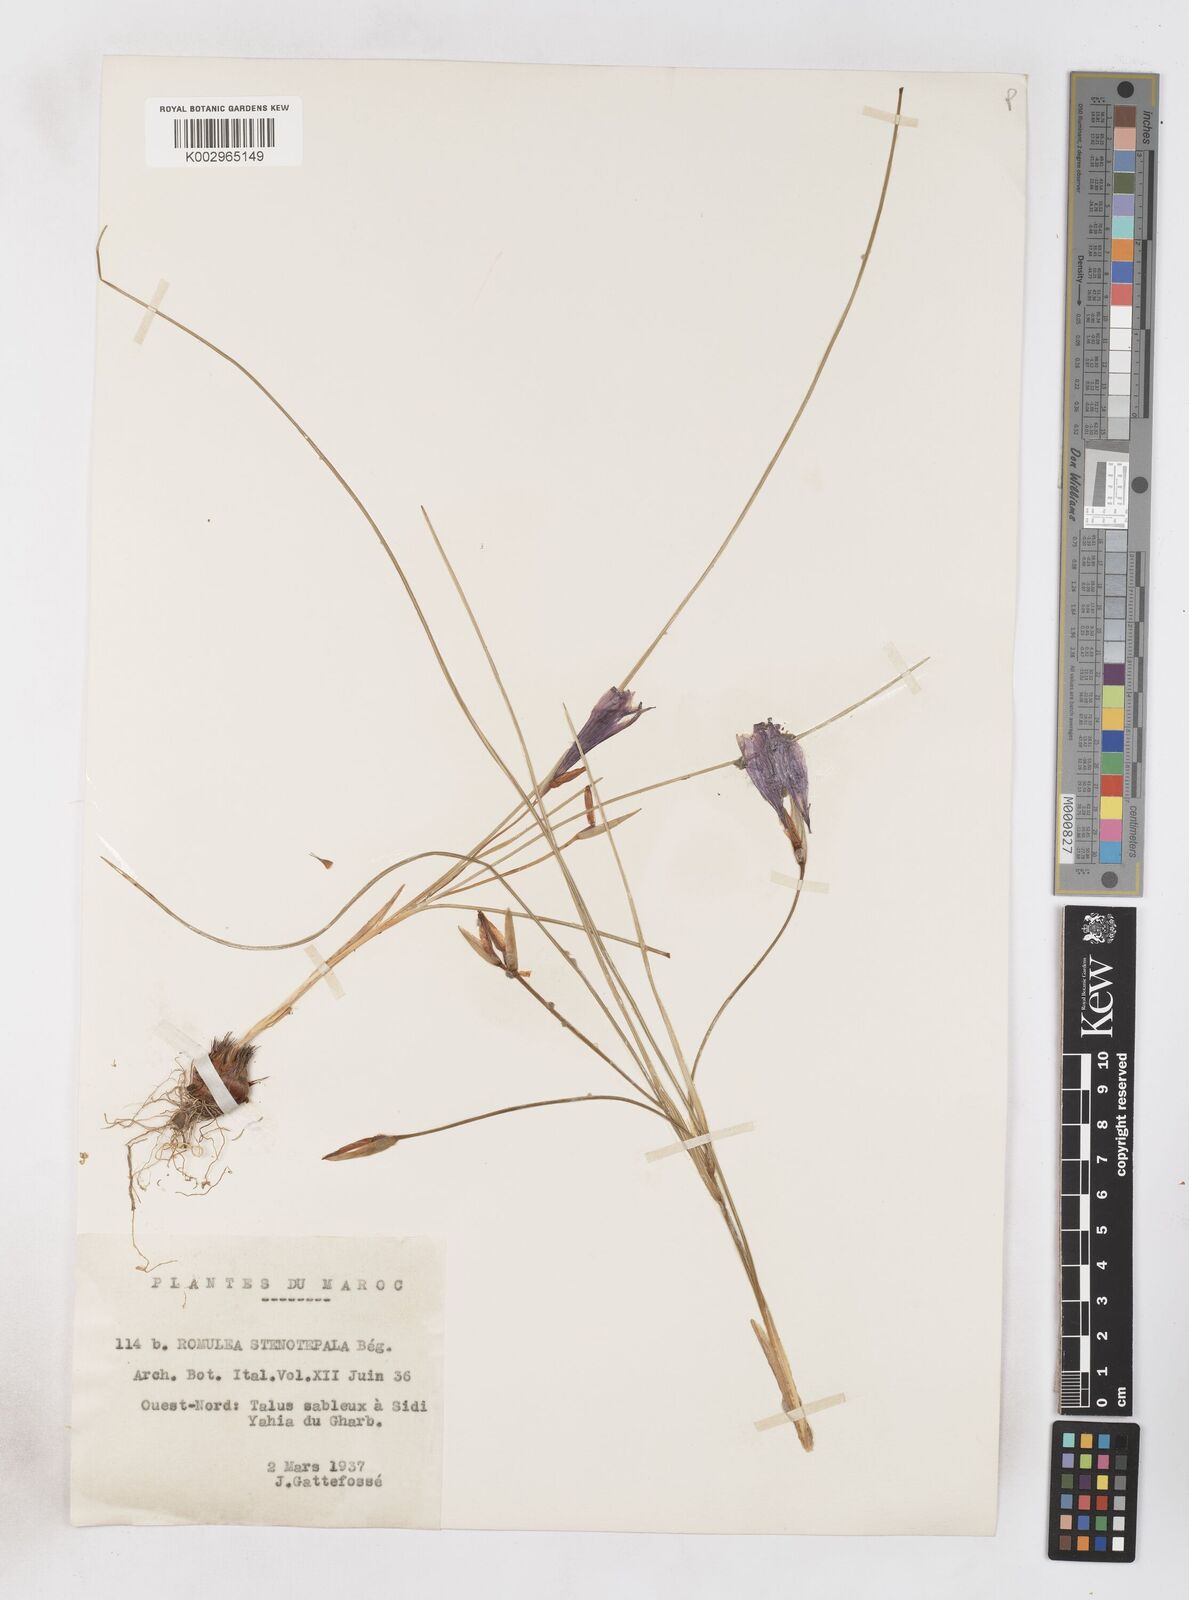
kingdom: Plantae
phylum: Tracheophyta
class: Liliopsida
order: Asparagales
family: Iridaceae
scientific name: Iridaceae
